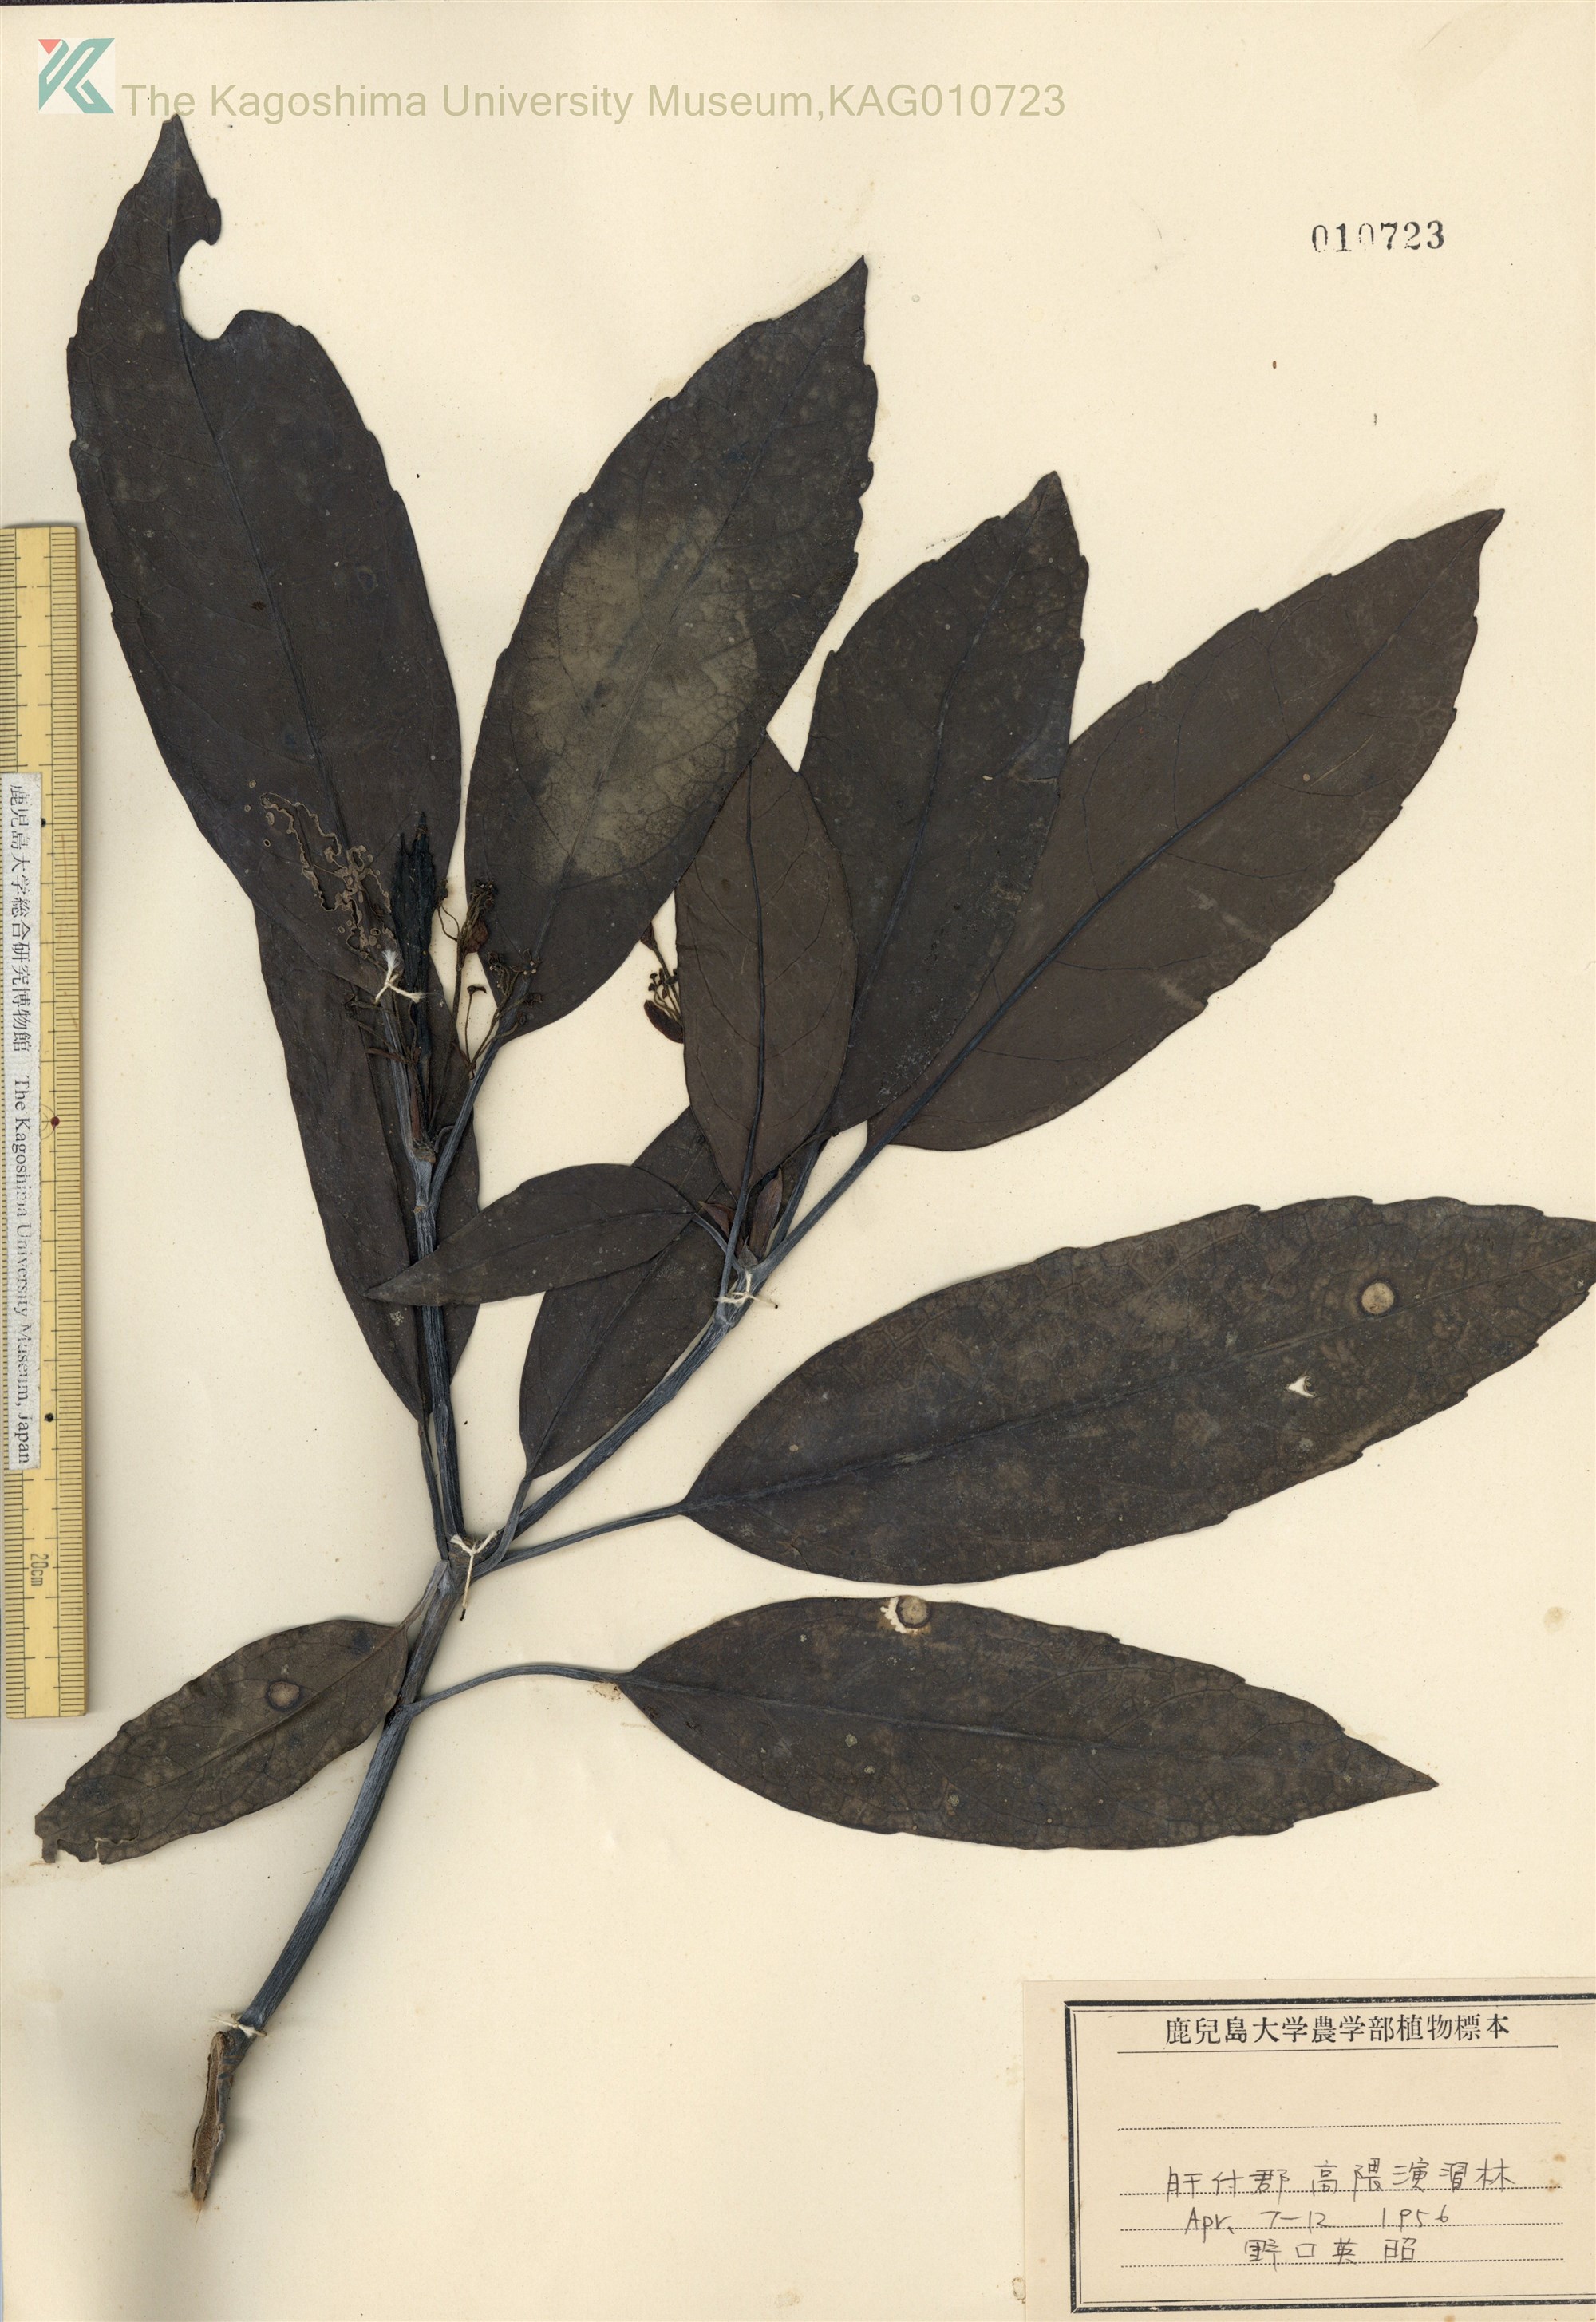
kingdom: Plantae
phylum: Tracheophyta
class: Magnoliopsida
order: Garryales
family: Garryaceae
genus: Aucuba
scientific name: Aucuba japonica
